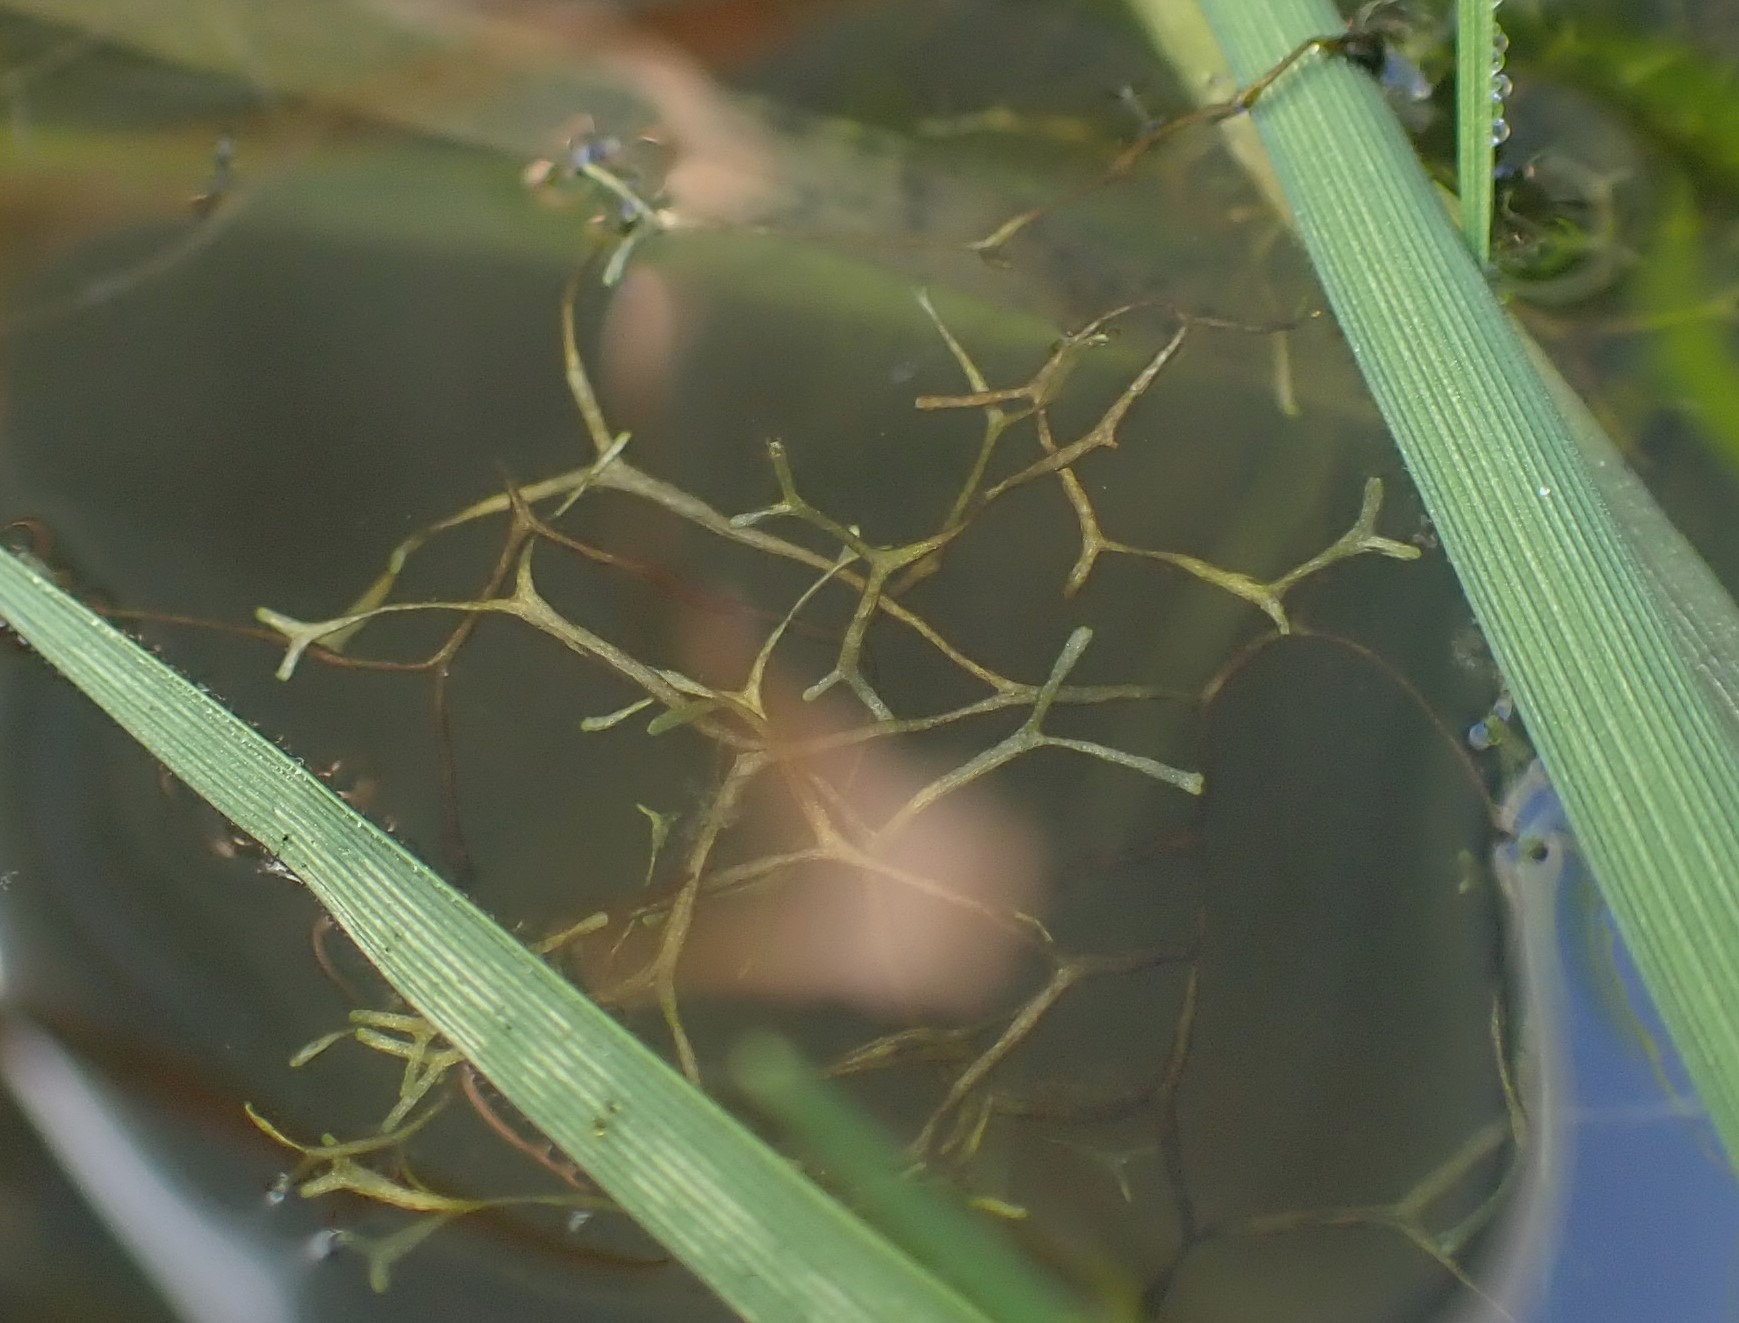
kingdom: Plantae
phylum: Marchantiophyta
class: Marchantiopsida
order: Marchantiales
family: Ricciaceae
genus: Riccia
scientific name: Riccia fluitans
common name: Svømmende stjerneløv
